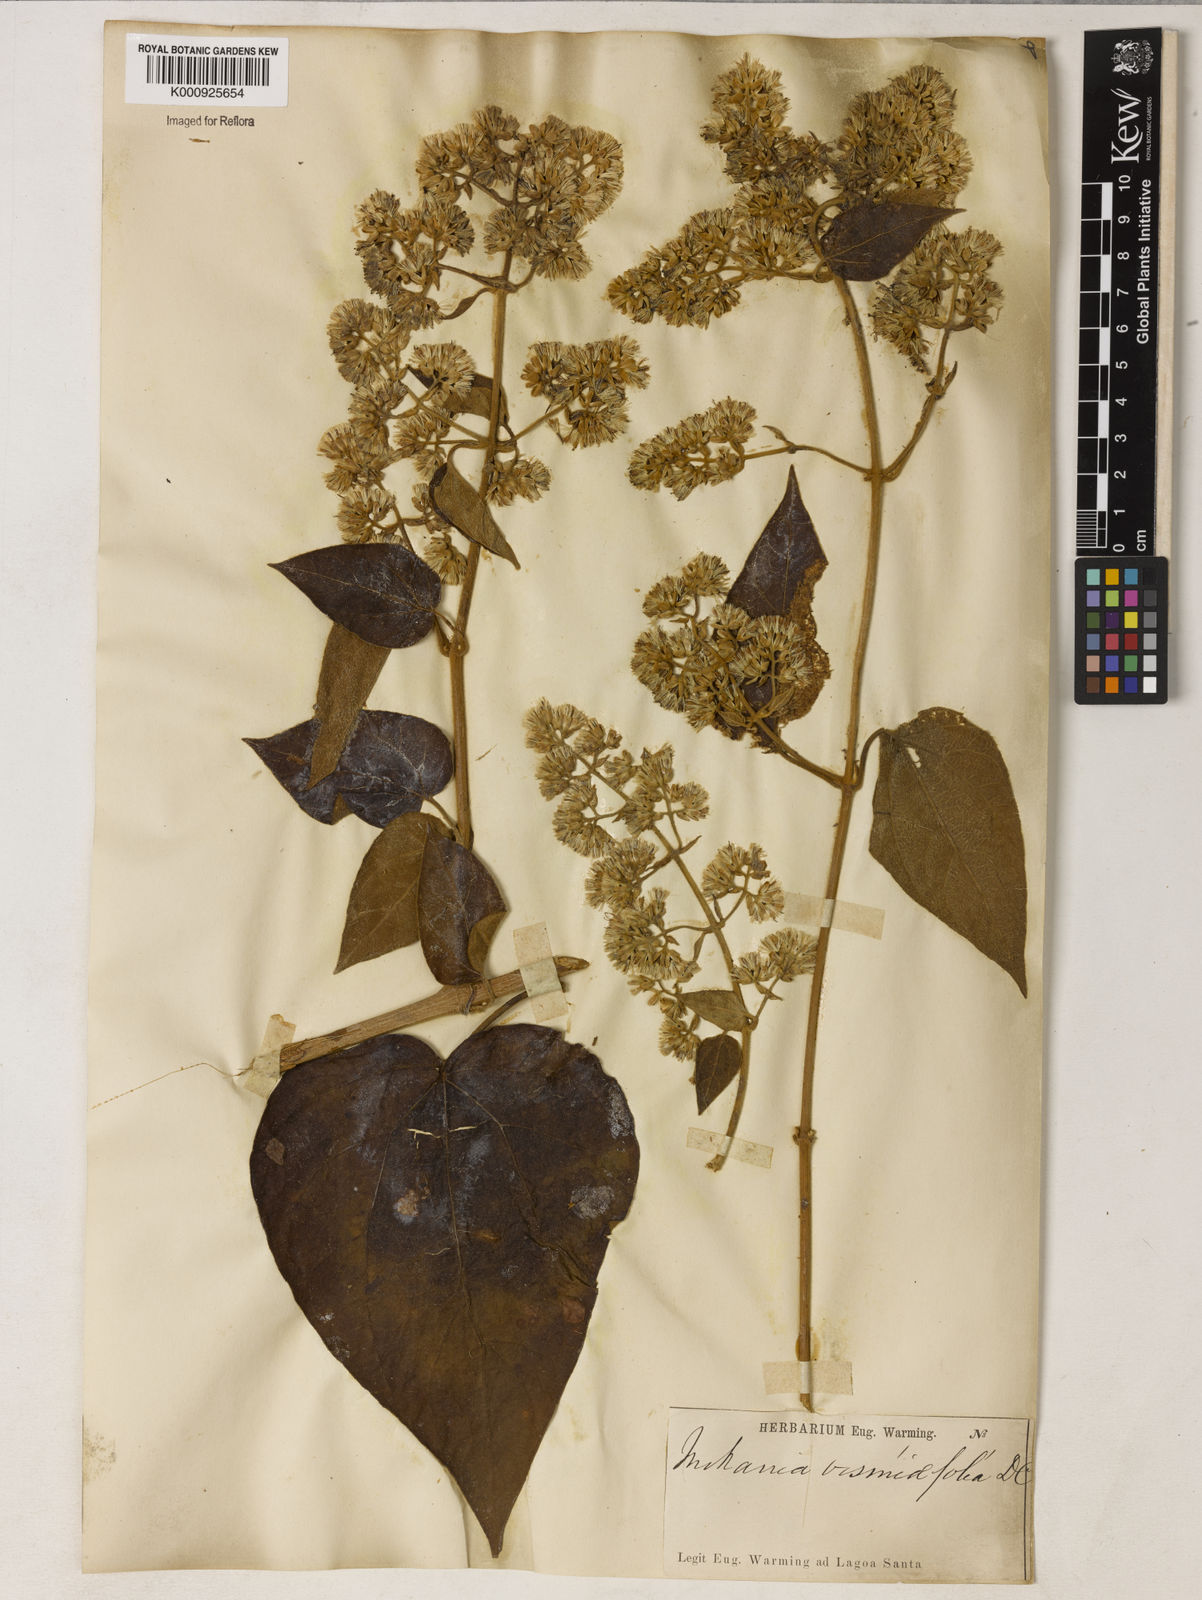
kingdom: Plantae
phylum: Tracheophyta
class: Magnoliopsida
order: Asterales
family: Asteraceae
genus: Mikania
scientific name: Mikania malacolepis
